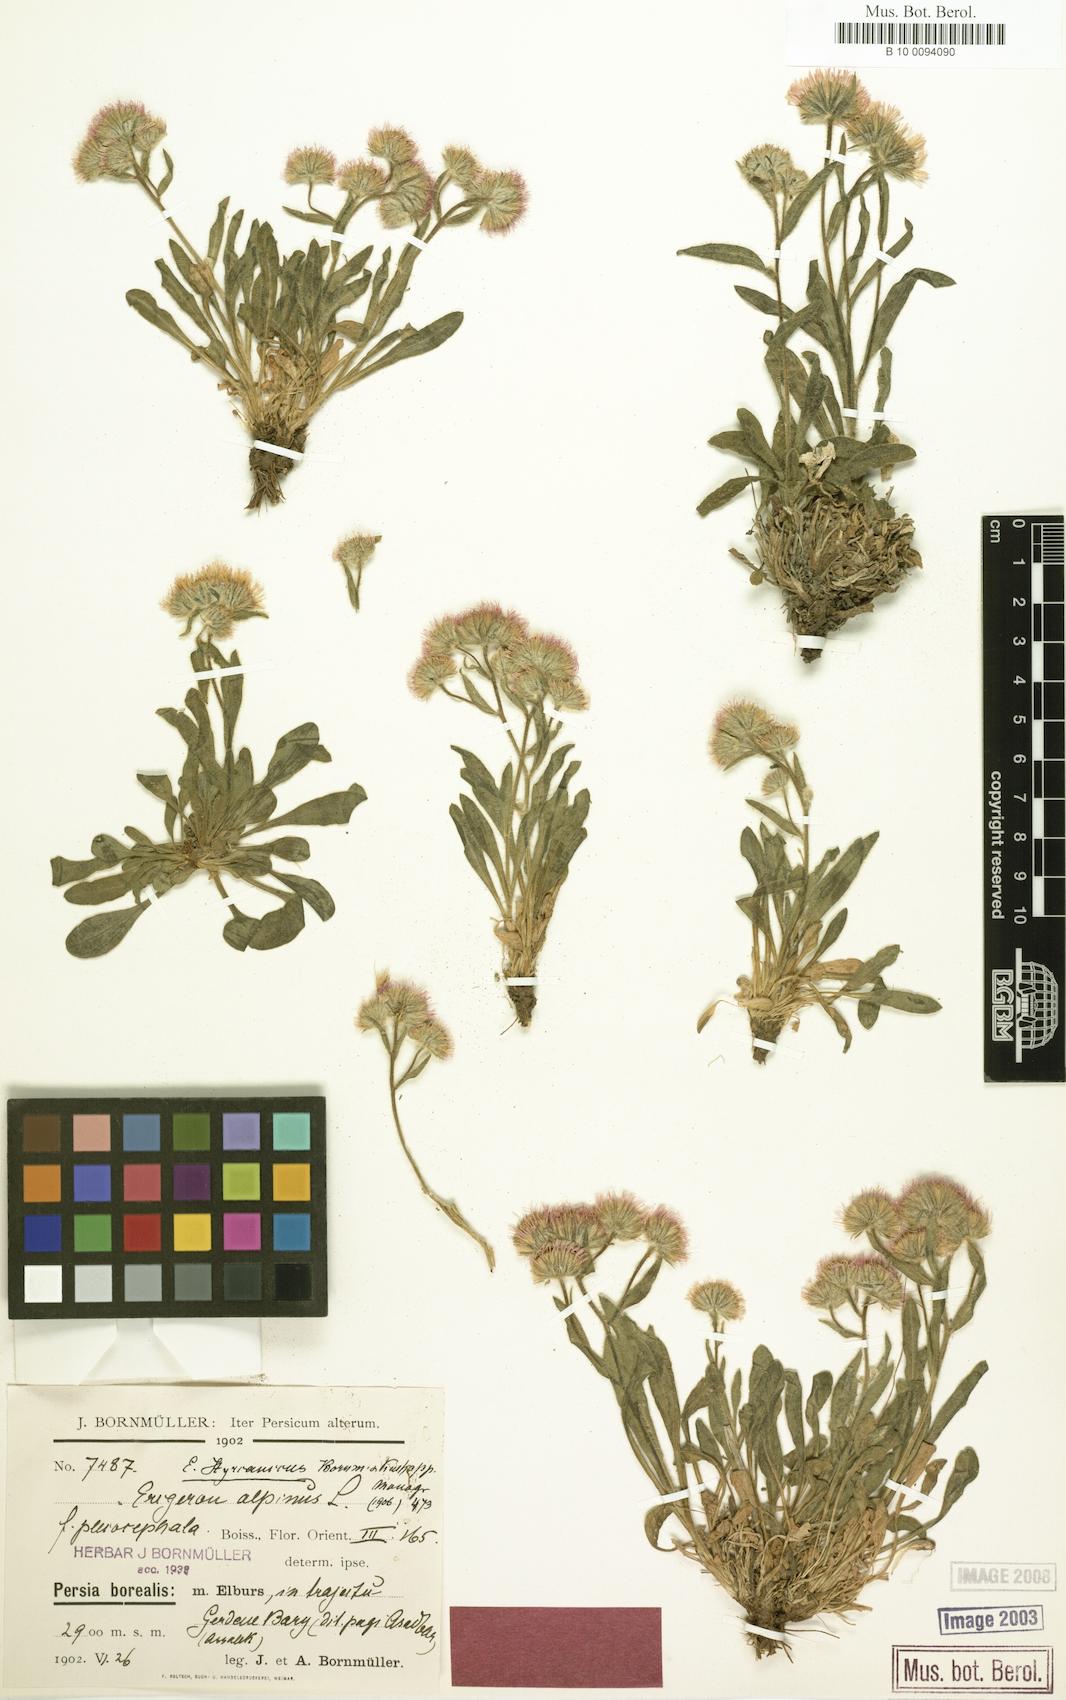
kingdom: Plantae
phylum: Tracheophyta
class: Magnoliopsida
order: Asterales
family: Asteraceae
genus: Erigeron
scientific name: Erigeron hyrcanicus
